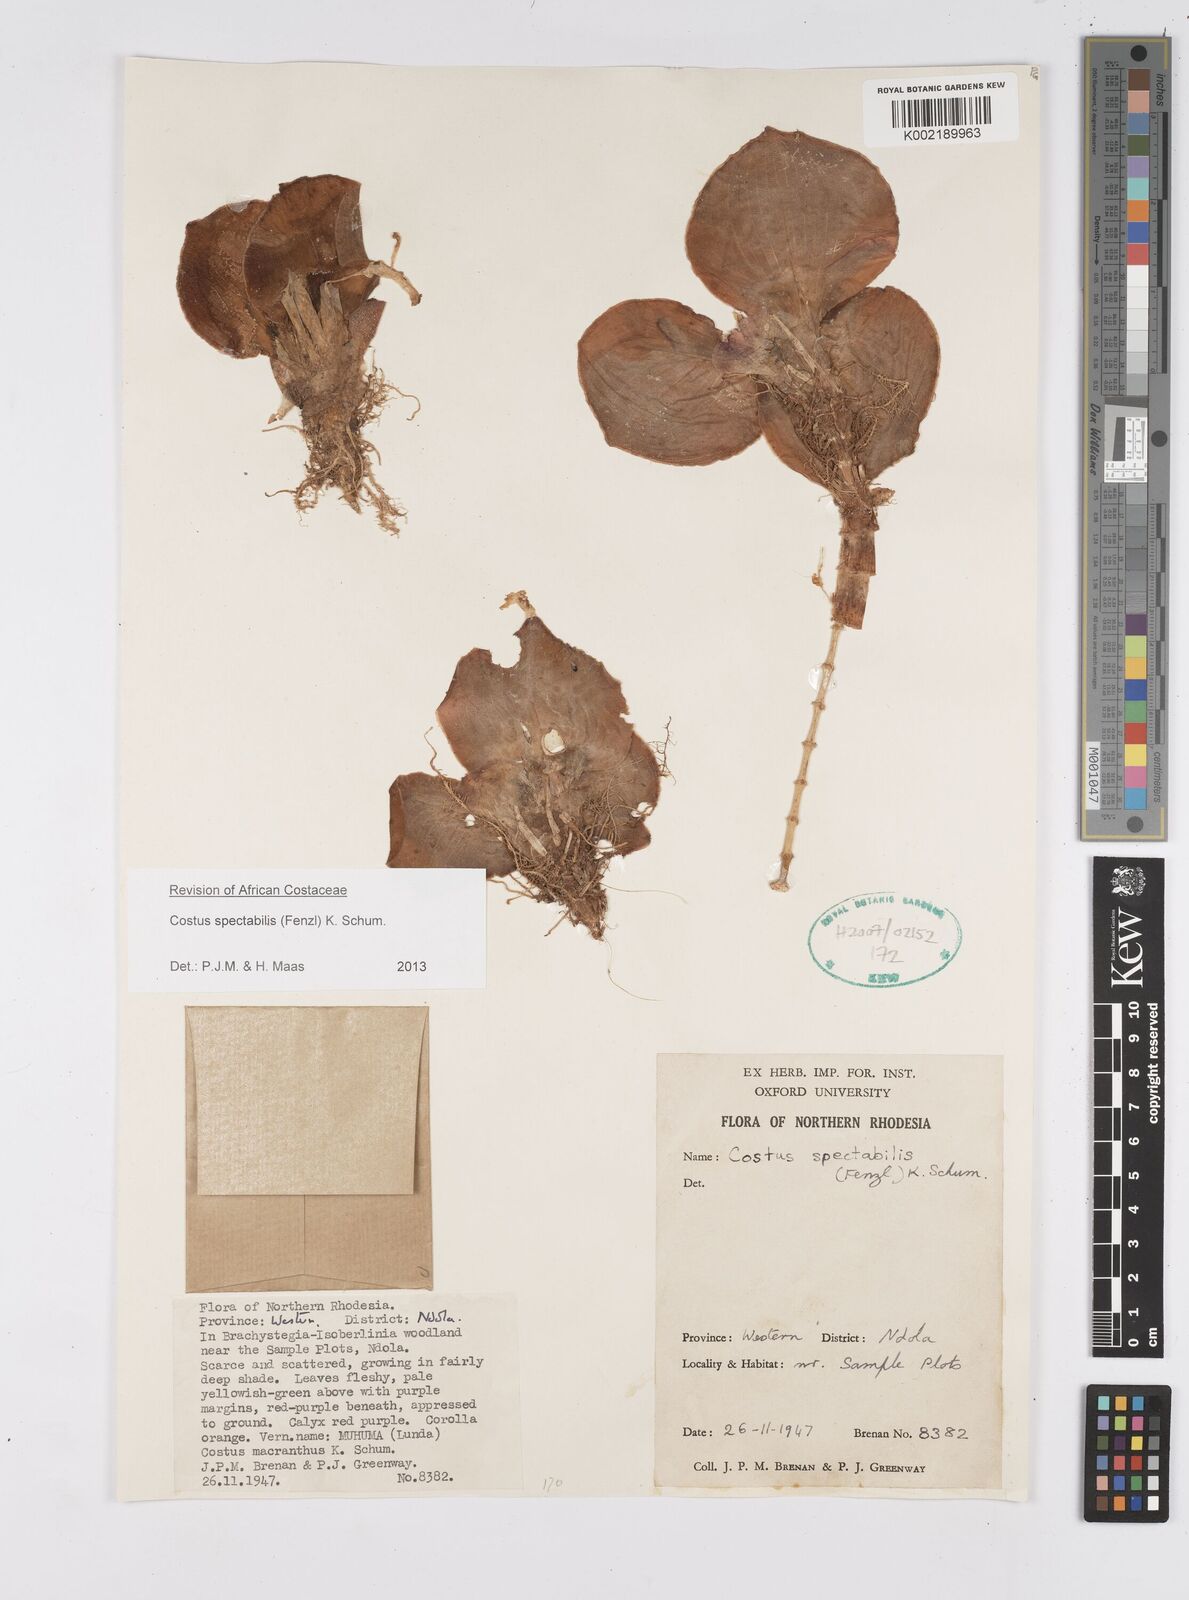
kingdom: Plantae
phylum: Tracheophyta
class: Liliopsida
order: Zingiberales
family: Costaceae
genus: Costus
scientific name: Costus spectabilis
